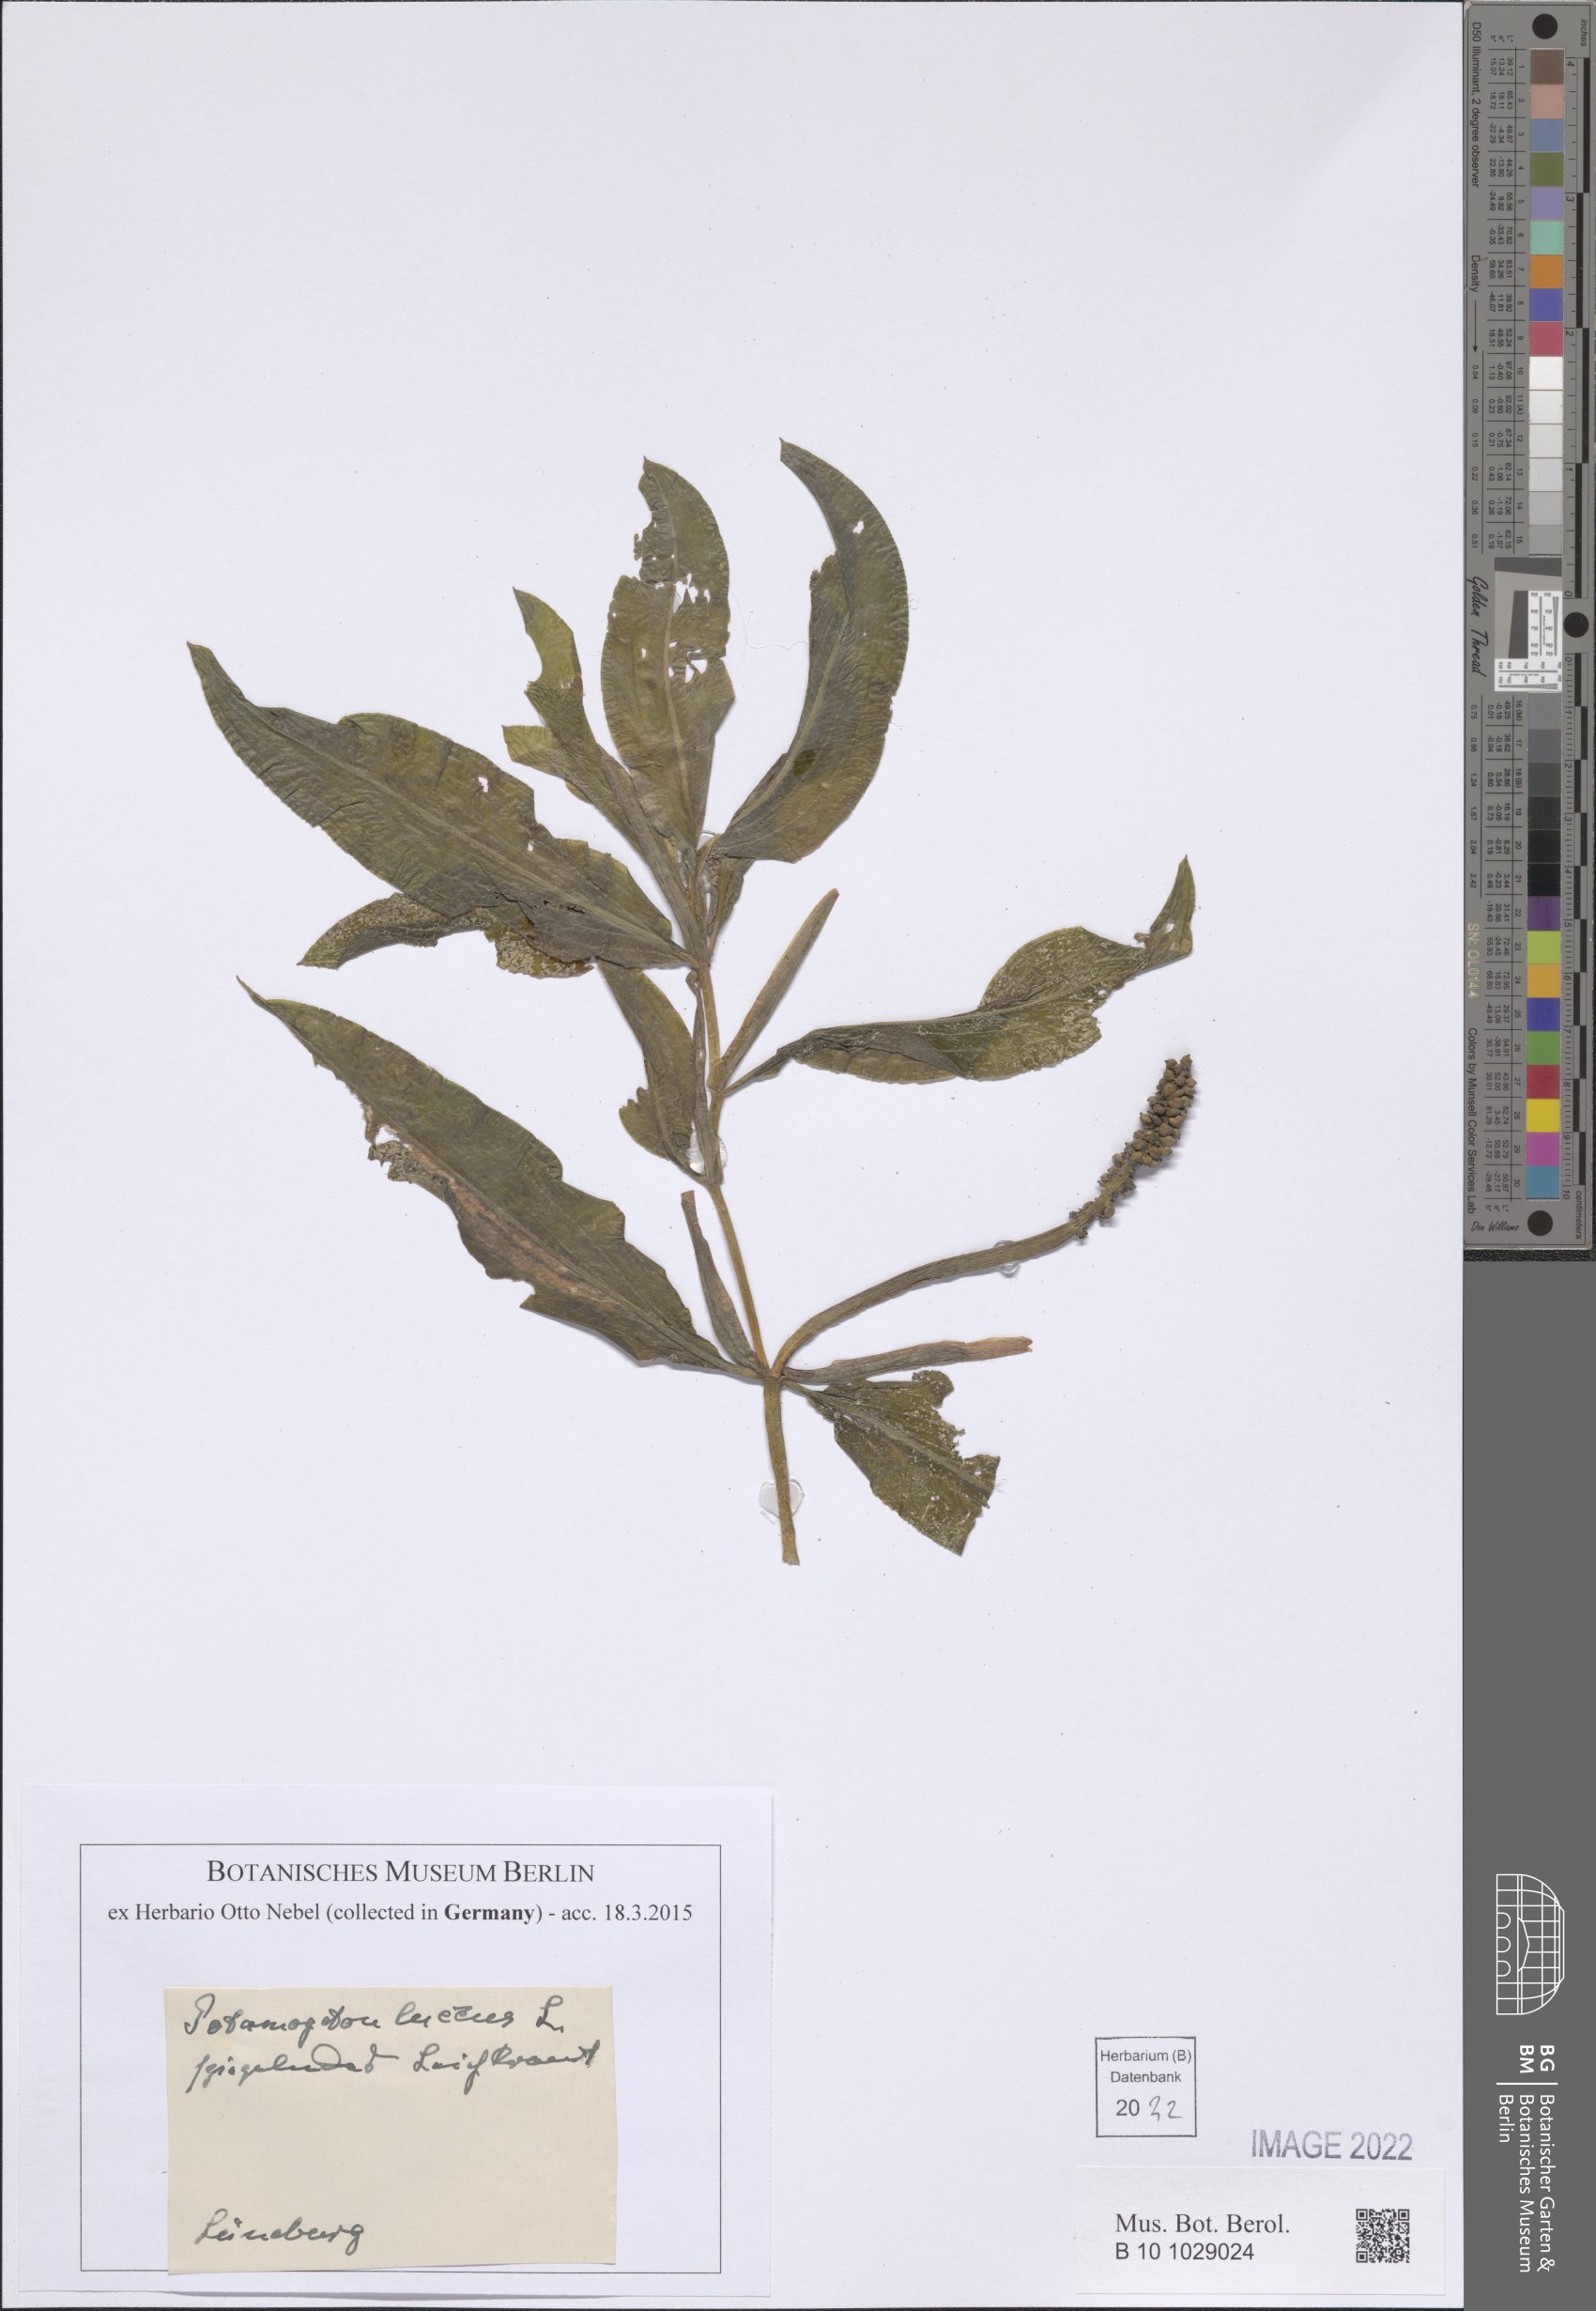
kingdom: Plantae
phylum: Tracheophyta
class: Liliopsida
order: Alismatales
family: Potamogetonaceae
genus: Potamogeton
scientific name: Potamogeton lucens
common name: Shining pondweed
